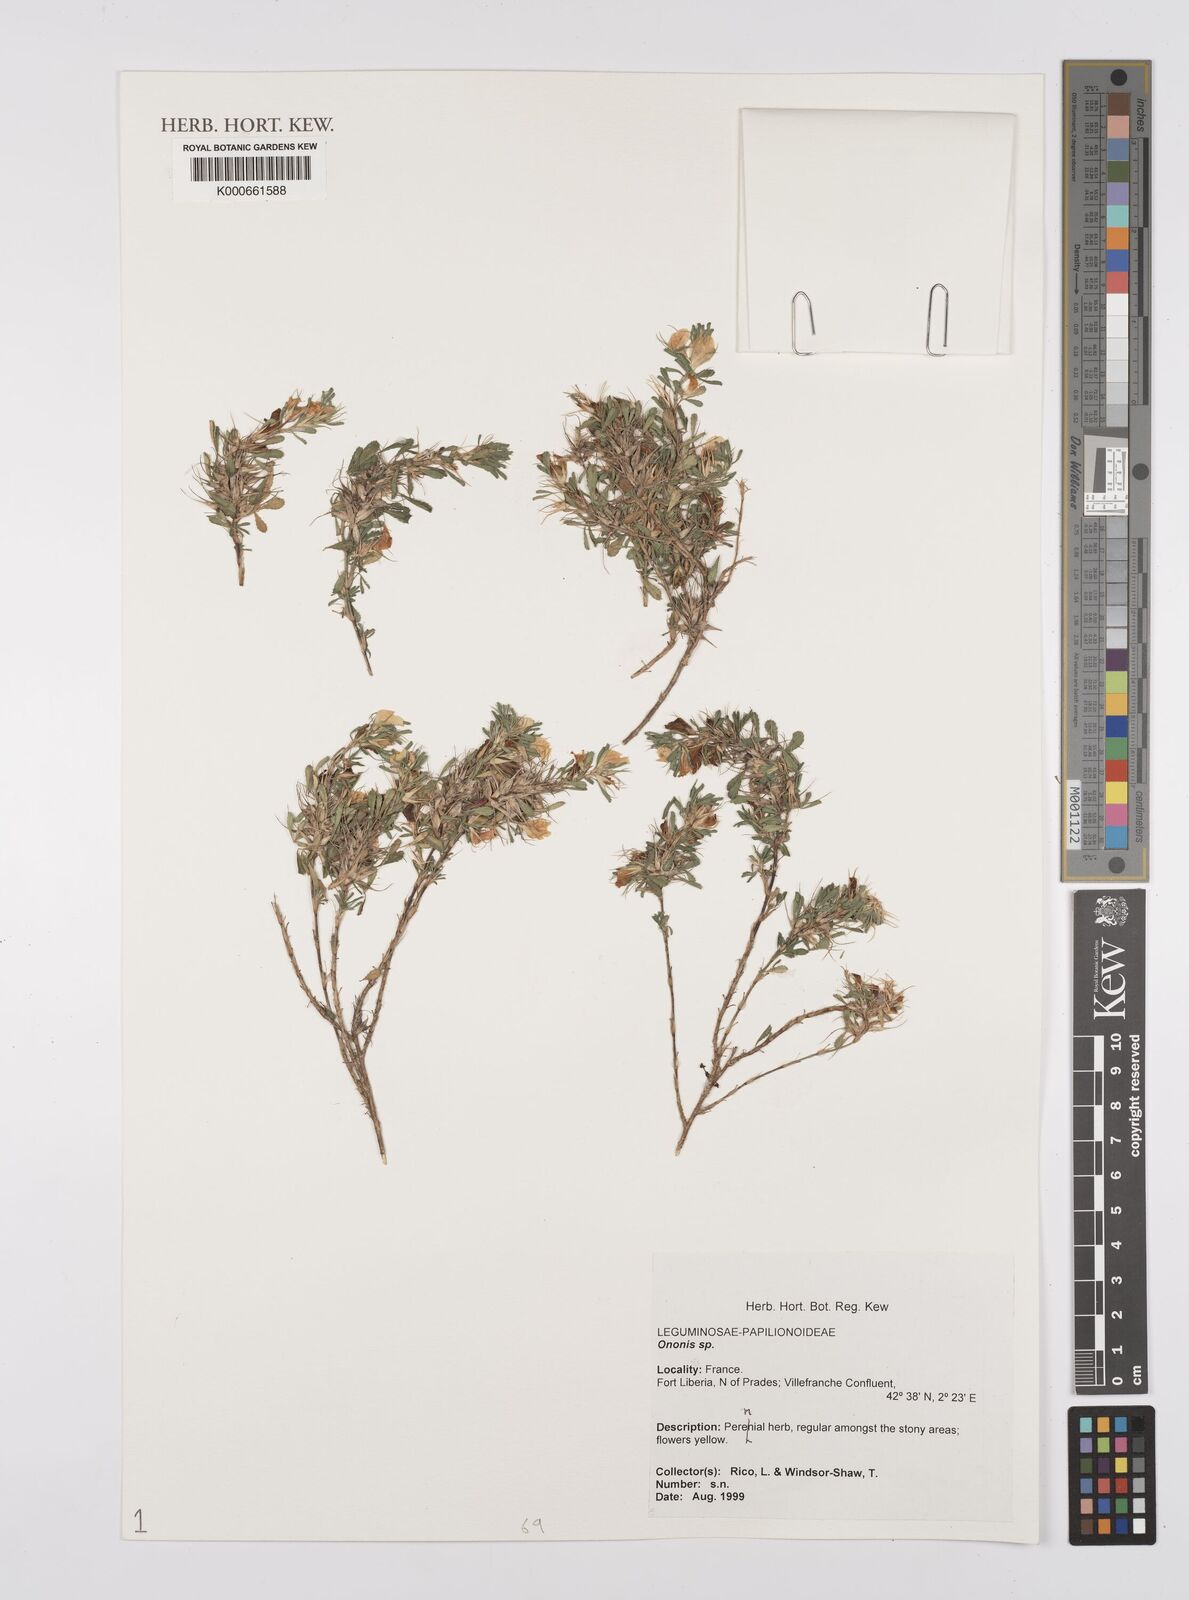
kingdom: Plantae
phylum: Tracheophyta
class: Magnoliopsida
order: Fabales
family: Fabaceae
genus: Ononis
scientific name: Ononis
